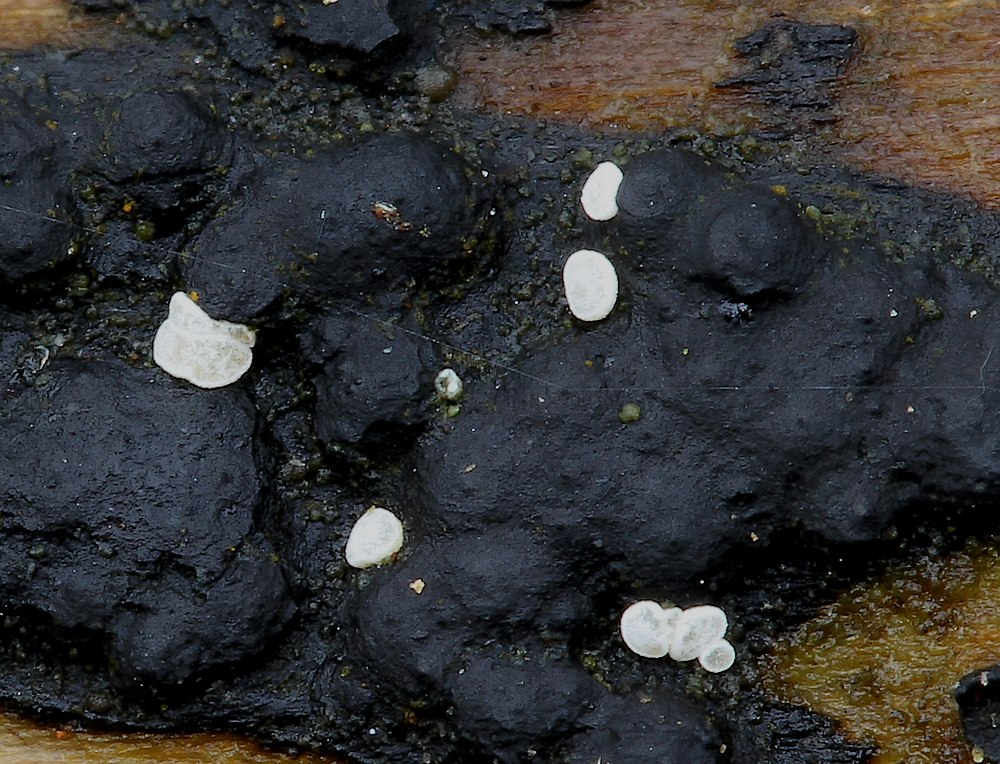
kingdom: Fungi
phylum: Ascomycota
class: Leotiomycetes
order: Helotiales
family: Hyaloscyphaceae
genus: Polydesmia
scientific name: Polydesmia pruinosa
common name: dunskive
